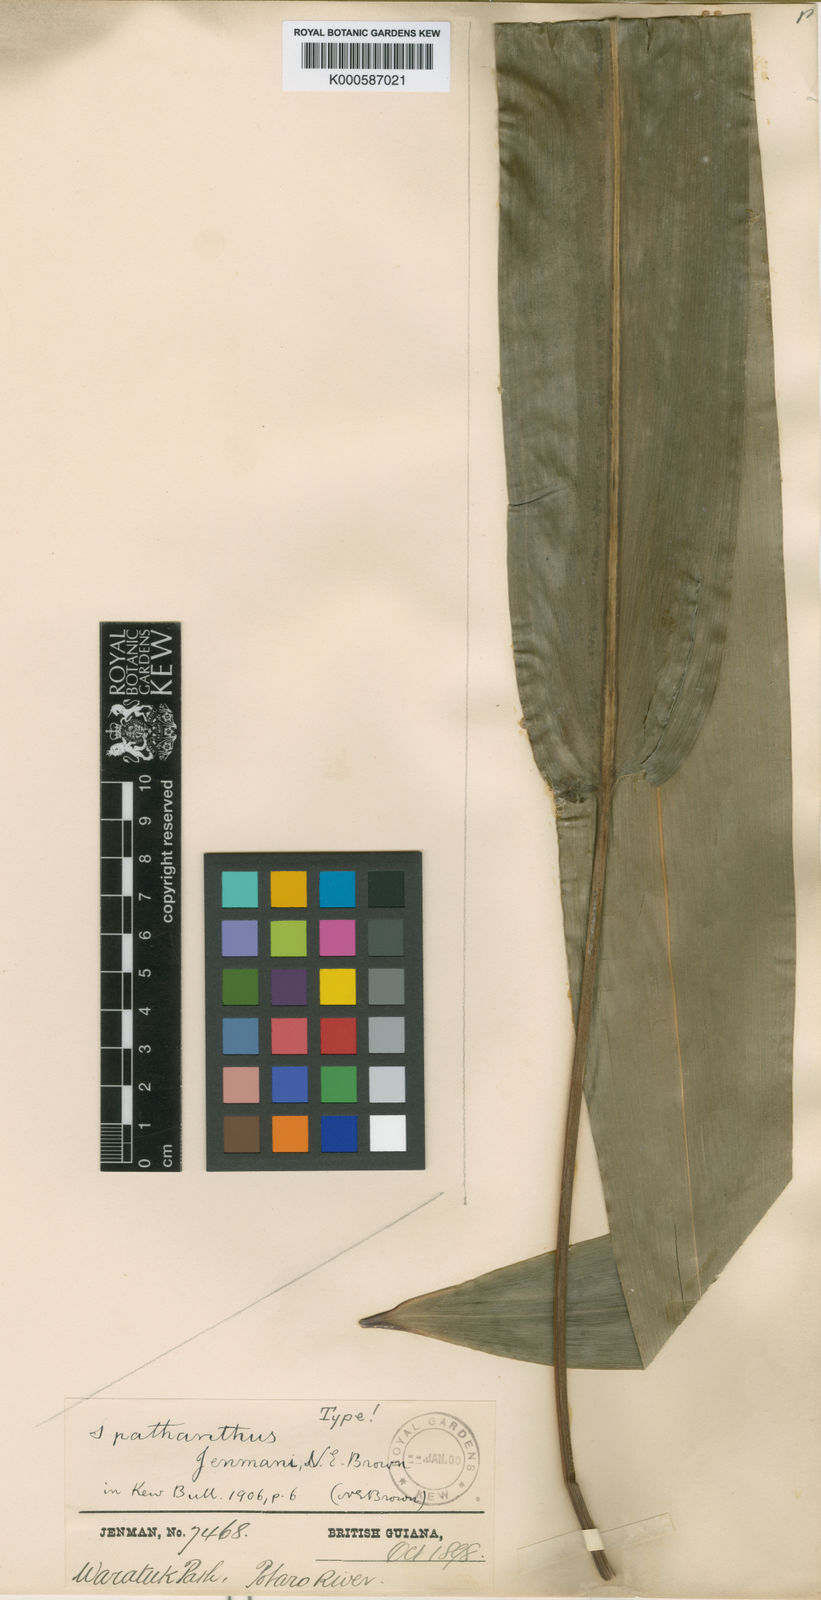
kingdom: Plantae
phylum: Tracheophyta
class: Liliopsida
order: Poales
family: Rapateaceae
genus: Spathanthus
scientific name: Spathanthus unilateralis
